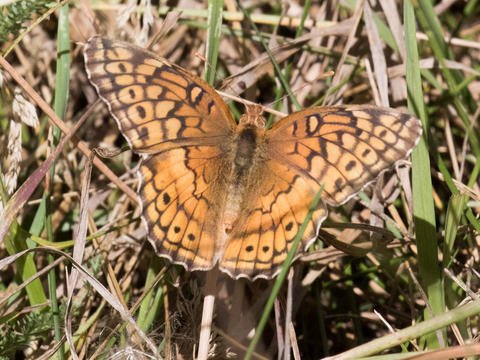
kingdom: Animalia
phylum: Arthropoda
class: Insecta
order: Lepidoptera
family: Nymphalidae
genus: Euptoieta
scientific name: Euptoieta claudia
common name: Variegated Fritillary
